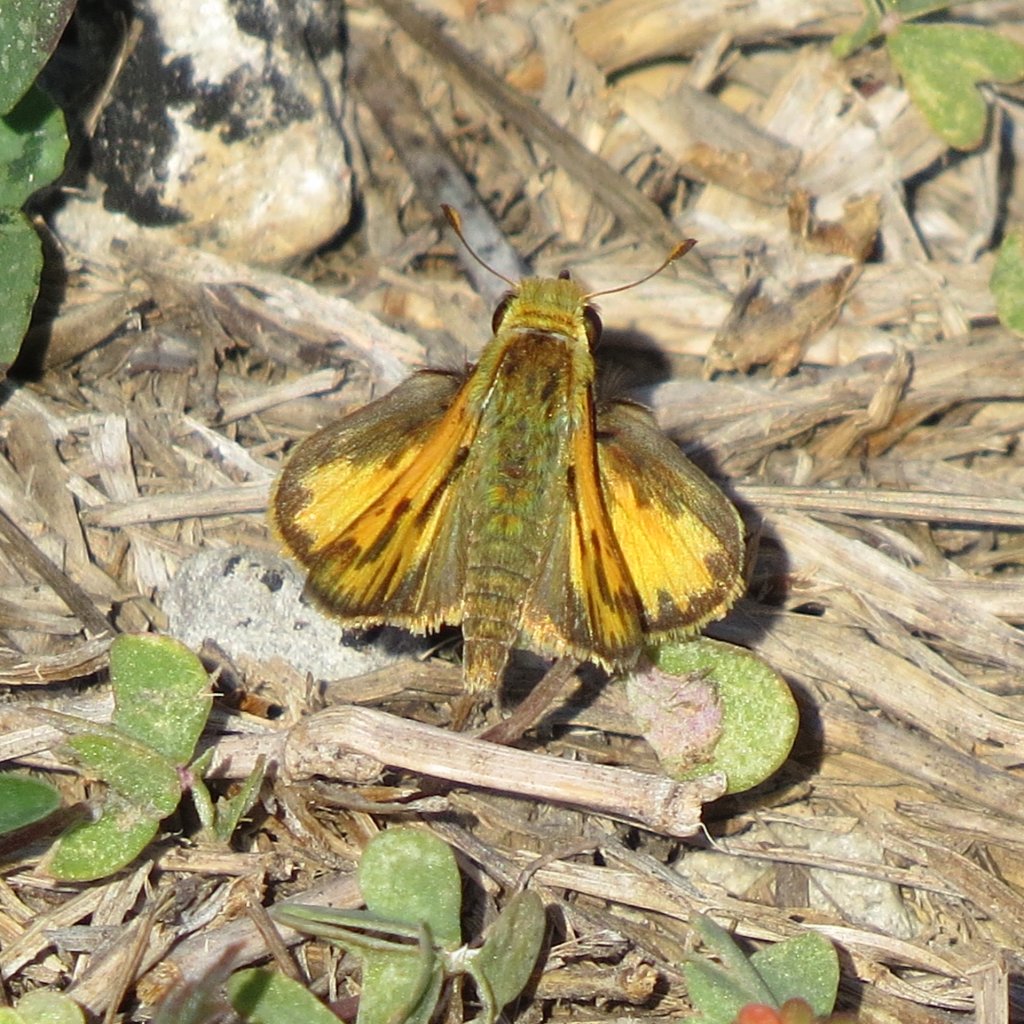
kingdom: Animalia
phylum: Arthropoda
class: Insecta
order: Lepidoptera
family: Hesperiidae
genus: Hylephila
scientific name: Hylephila phyleus
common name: Fiery Skipper
